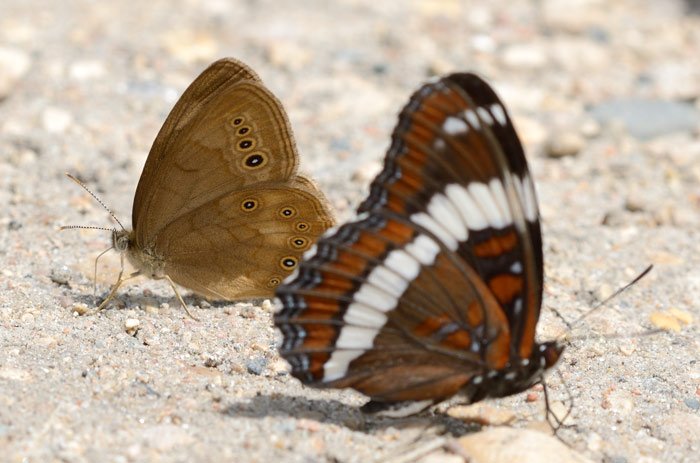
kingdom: Animalia
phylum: Arthropoda
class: Insecta
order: Lepidoptera
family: Nymphalidae
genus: Limenitis
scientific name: Limenitis arthemis
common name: Red-spotted Admiral
